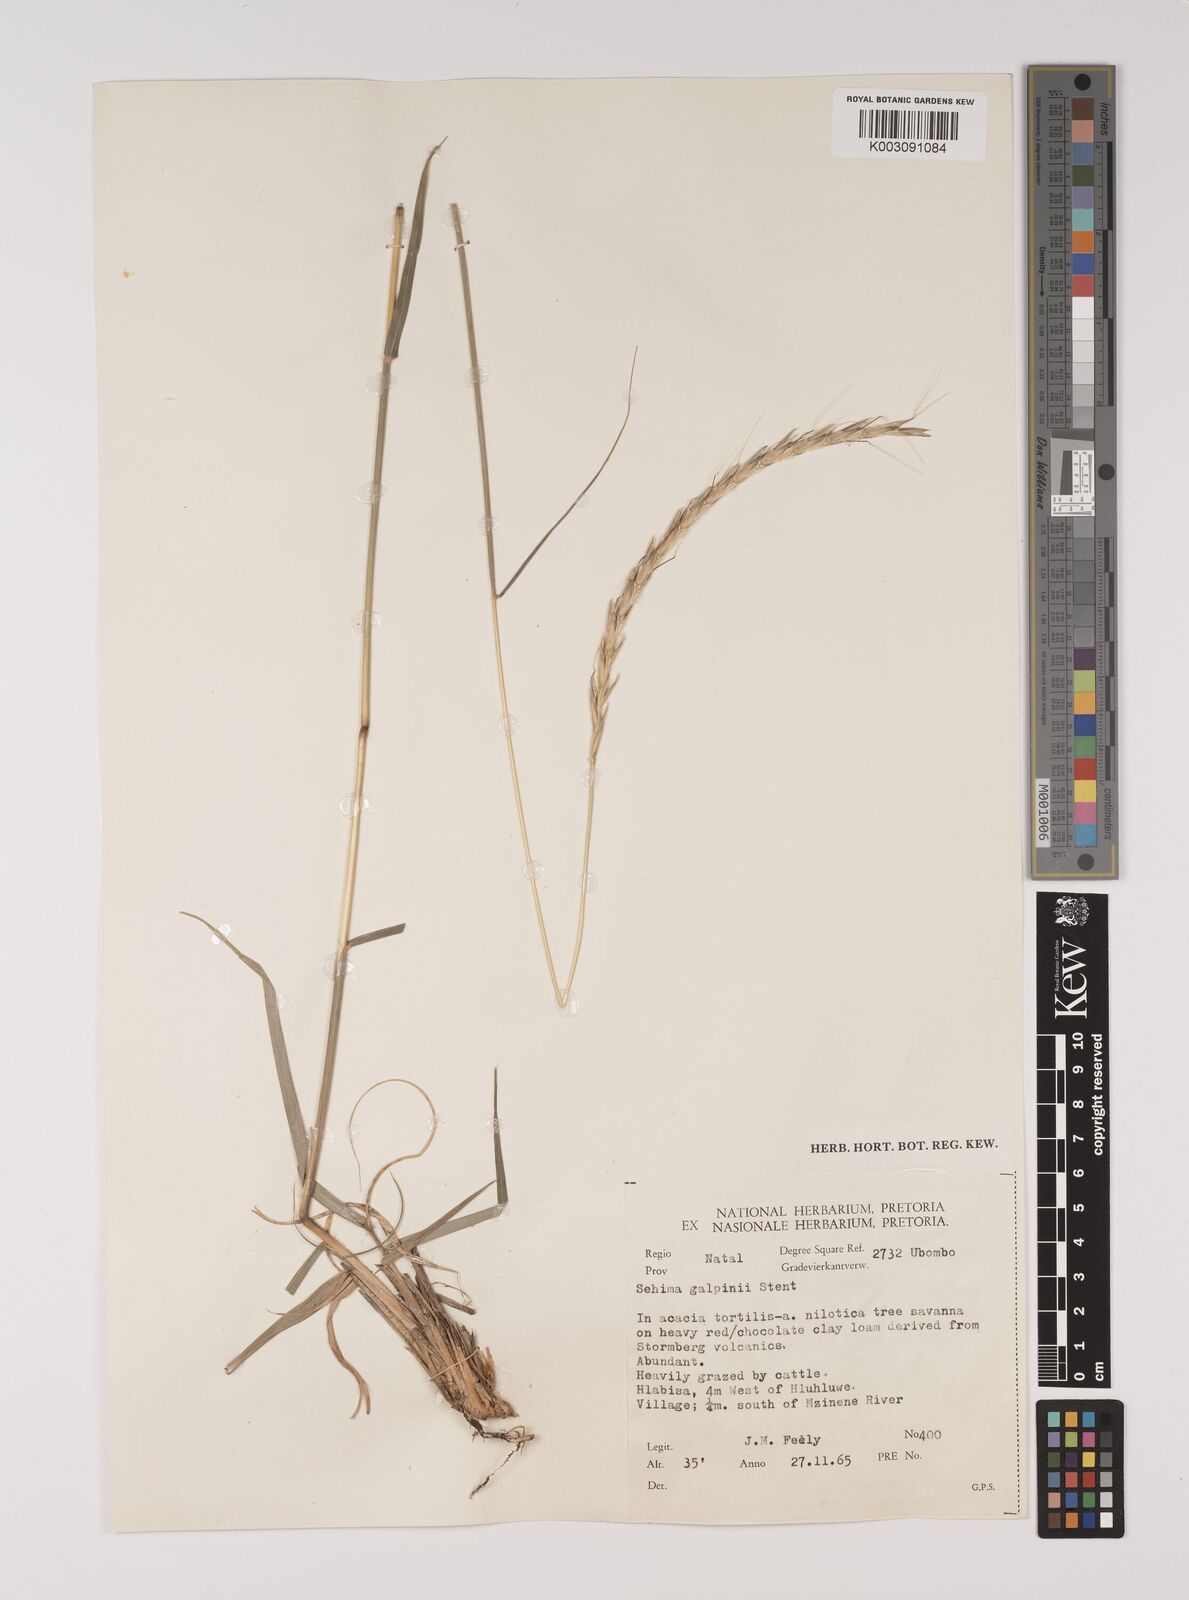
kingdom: Plantae
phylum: Tracheophyta
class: Liliopsida
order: Poales
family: Poaceae
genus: Sehima
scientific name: Sehima galpinii
